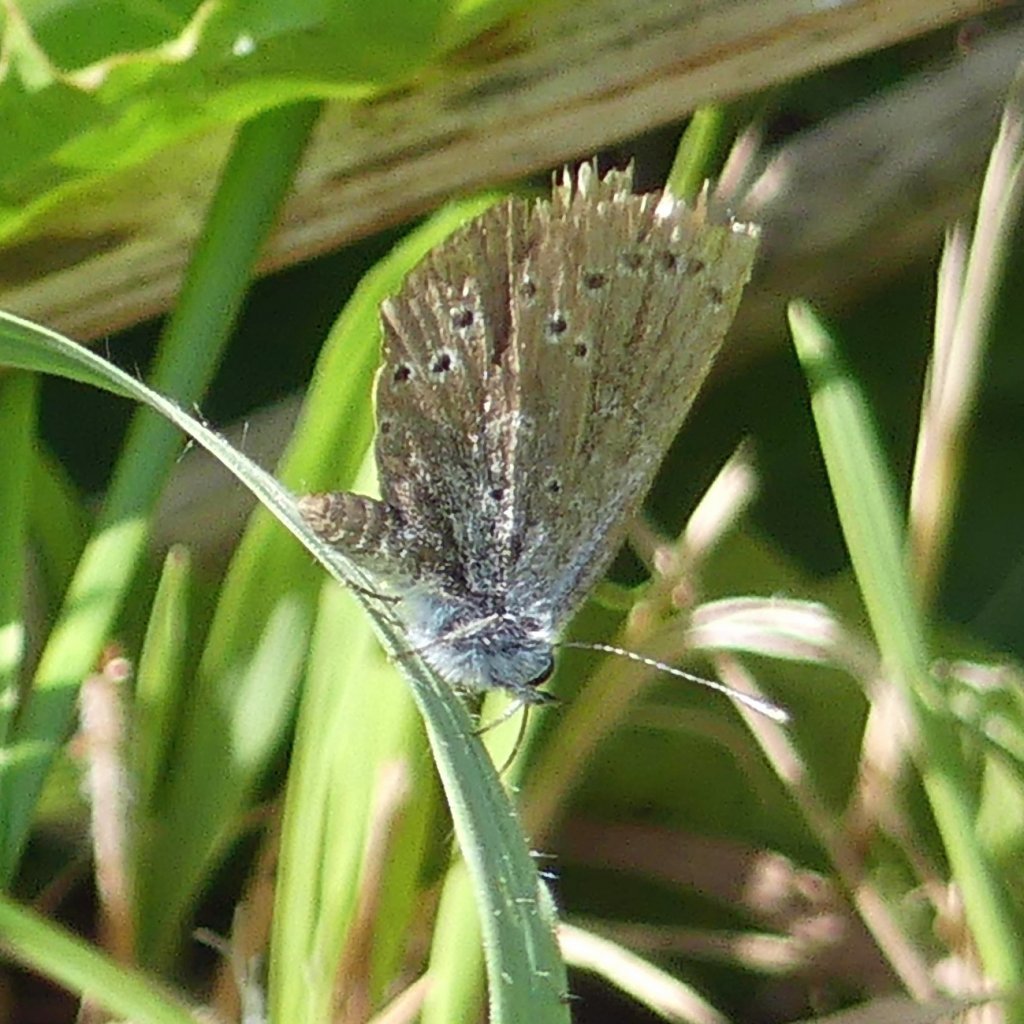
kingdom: Animalia
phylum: Arthropoda
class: Insecta
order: Lepidoptera
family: Lycaenidae
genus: Glaucopsyche
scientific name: Glaucopsyche lygdamus
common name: Silvery Blue
